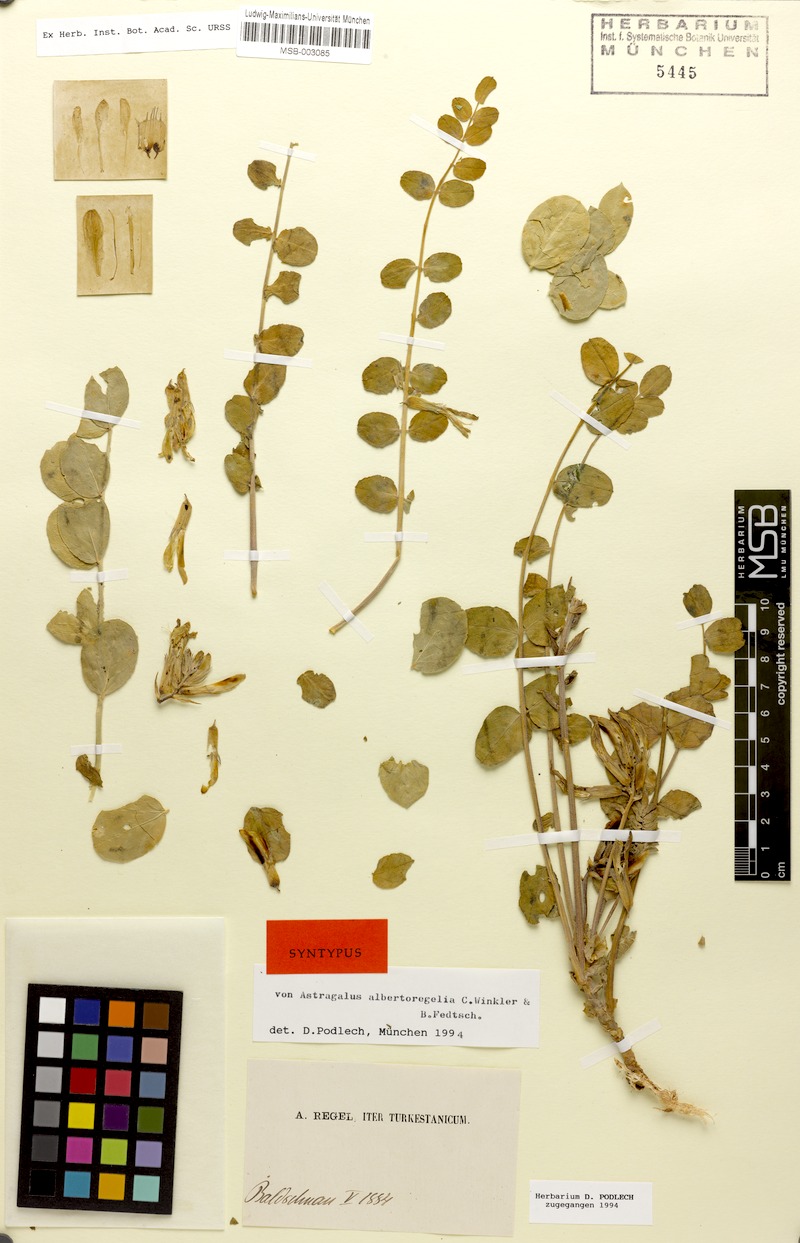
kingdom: Plantae
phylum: Tracheophyta
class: Magnoliopsida
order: Fabales
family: Fabaceae
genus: Astragalus
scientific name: Astragalus albertoregelia
